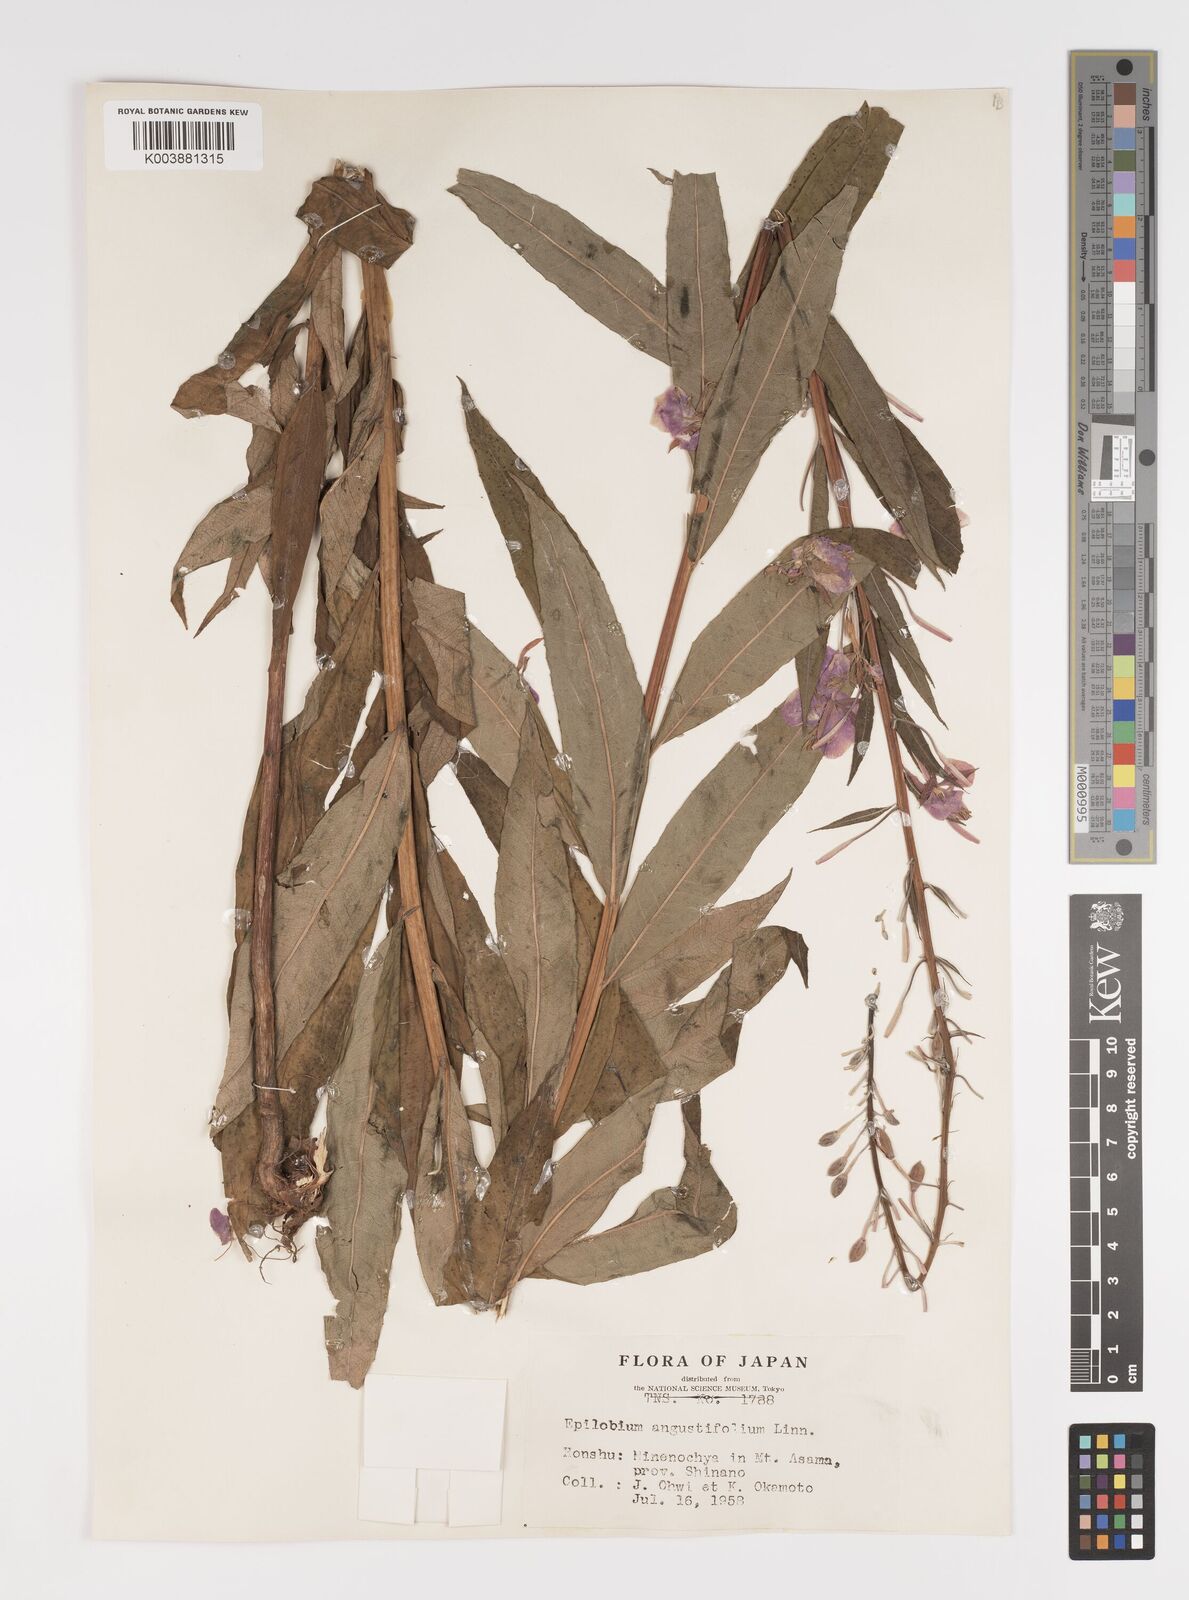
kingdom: Plantae
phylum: Tracheophyta
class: Magnoliopsida
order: Myrtales
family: Onagraceae
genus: Chamaenerion
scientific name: Chamaenerion angustifolium
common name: Fireweed
